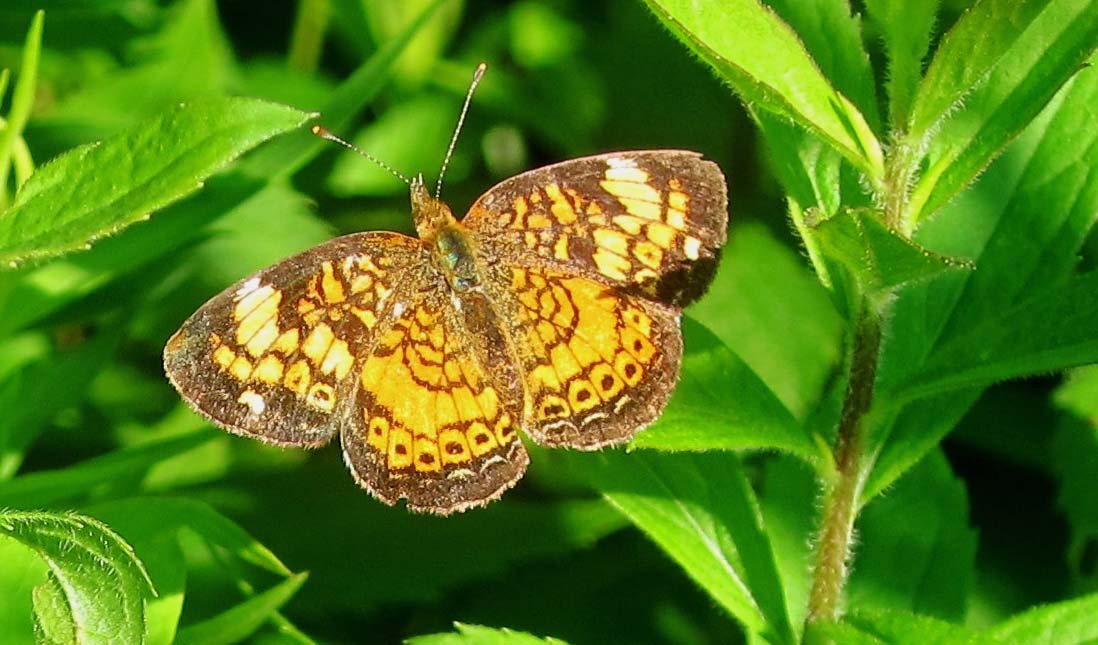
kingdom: Animalia
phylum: Arthropoda
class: Insecta
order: Lepidoptera
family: Nymphalidae
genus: Phyciodes
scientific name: Phyciodes tharos
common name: Pearl Crescent
